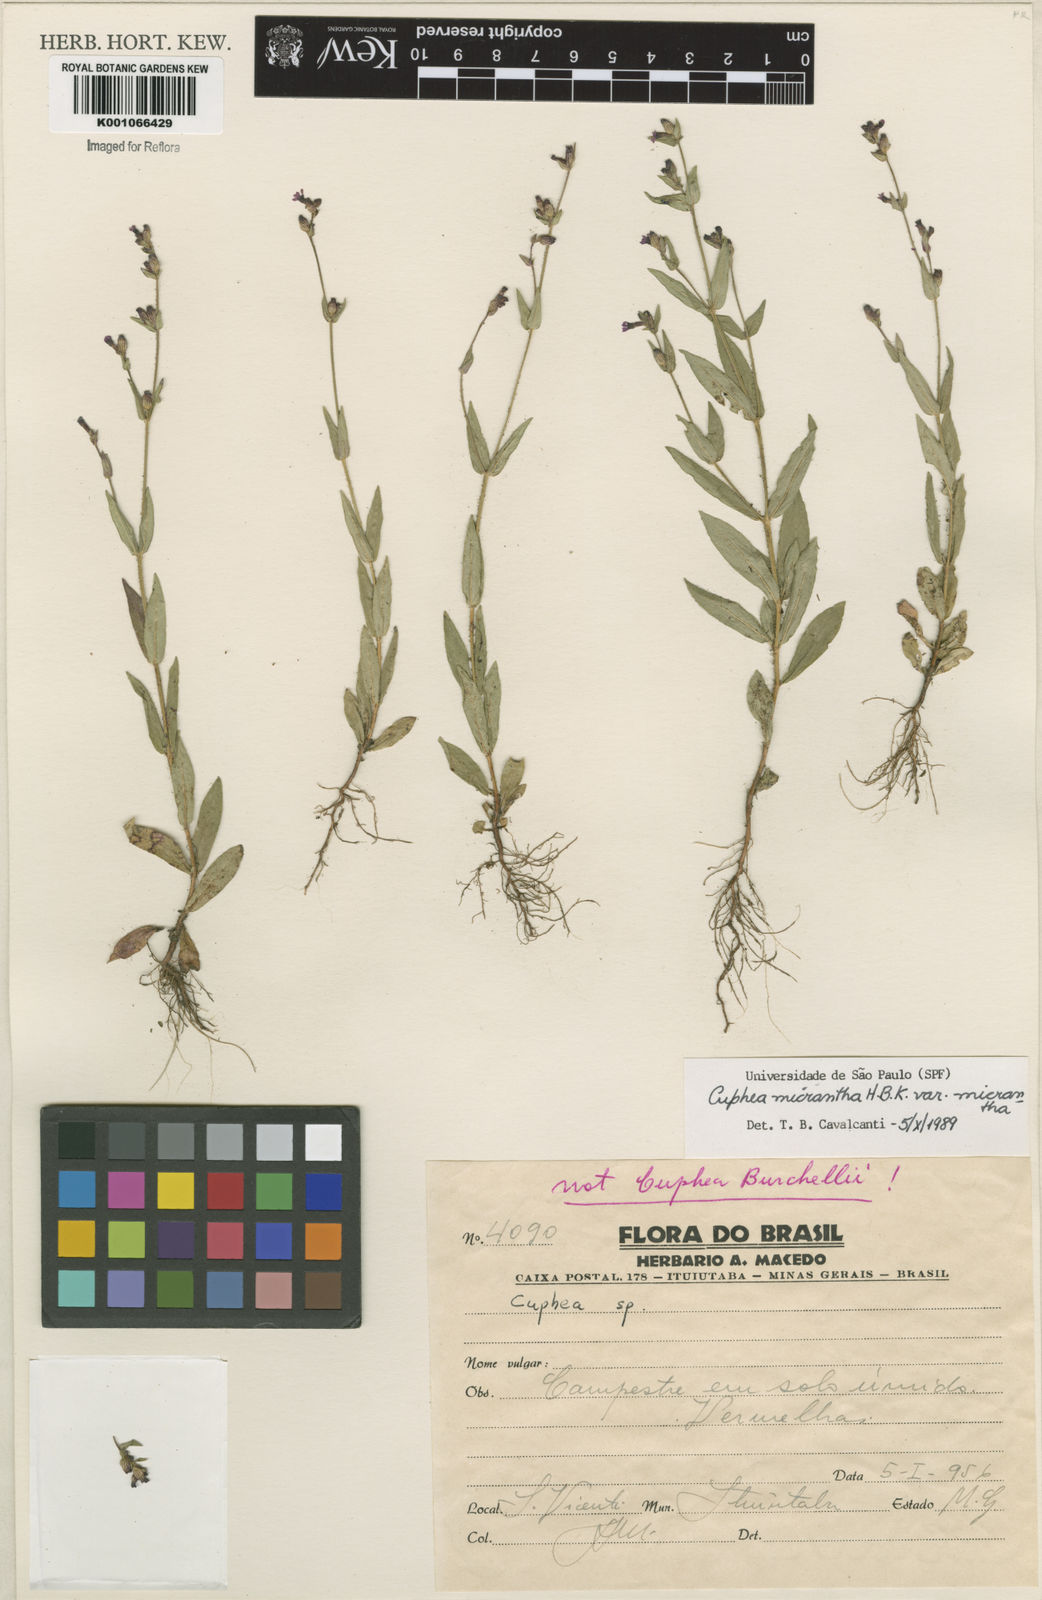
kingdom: Plantae
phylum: Tracheophyta
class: Magnoliopsida
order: Myrtales
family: Lythraceae
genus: Cuphea
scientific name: Cuphea micrantha
